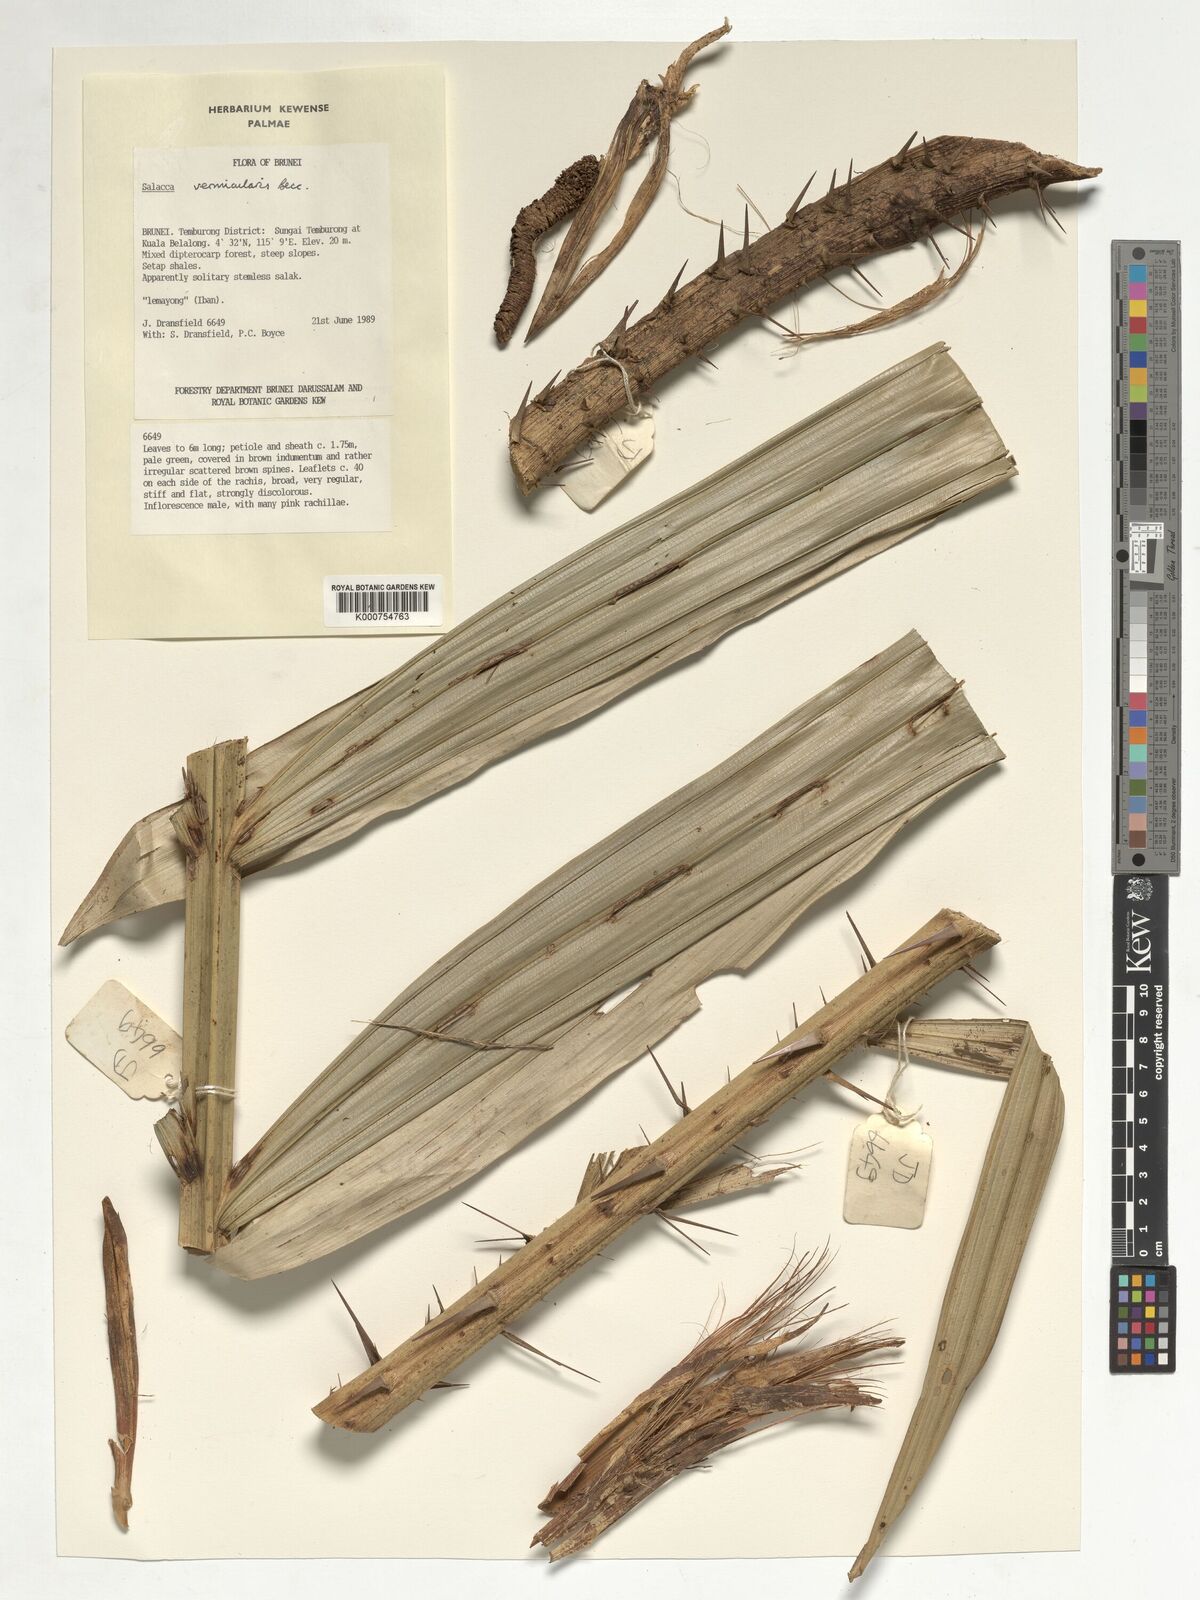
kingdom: Plantae
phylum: Tracheophyta
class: Liliopsida
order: Arecales
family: Arecaceae
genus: Salacca
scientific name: Salacca vermicularis
